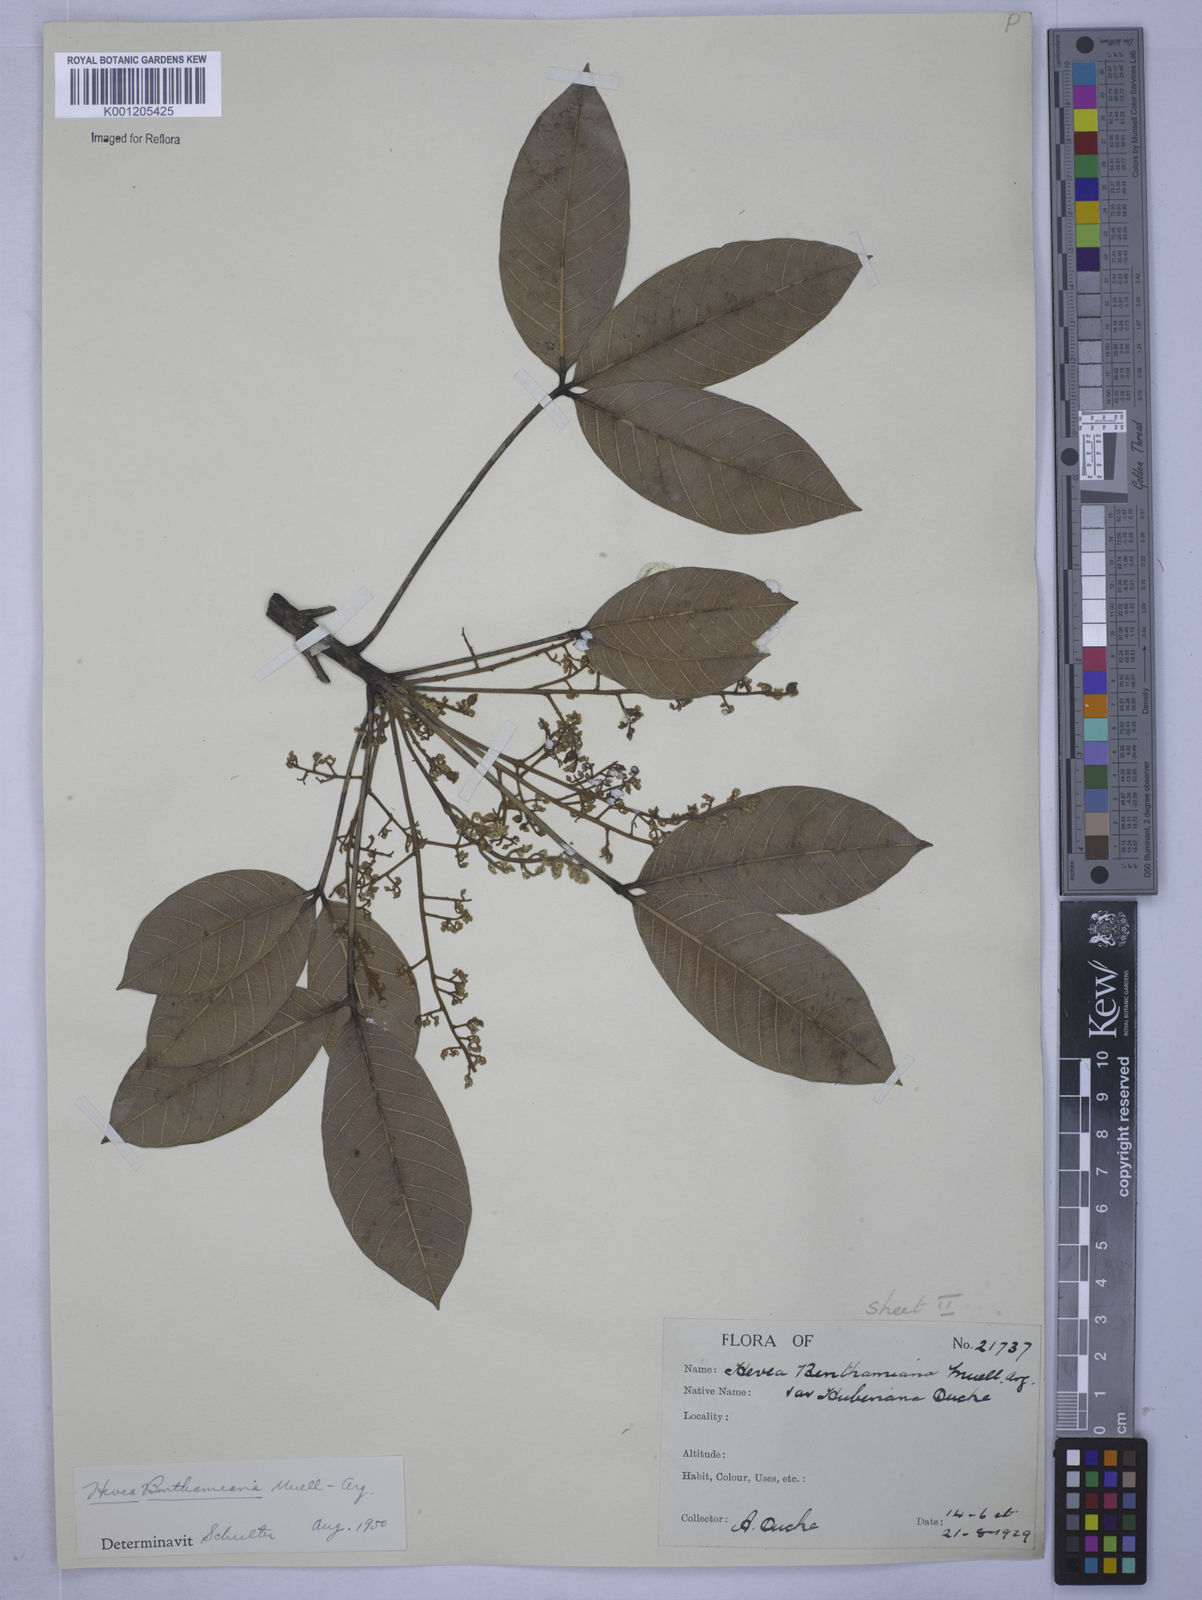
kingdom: Plantae
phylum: Tracheophyta
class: Magnoliopsida
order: Malpighiales
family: Euphorbiaceae
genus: Hevea
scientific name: Hevea
